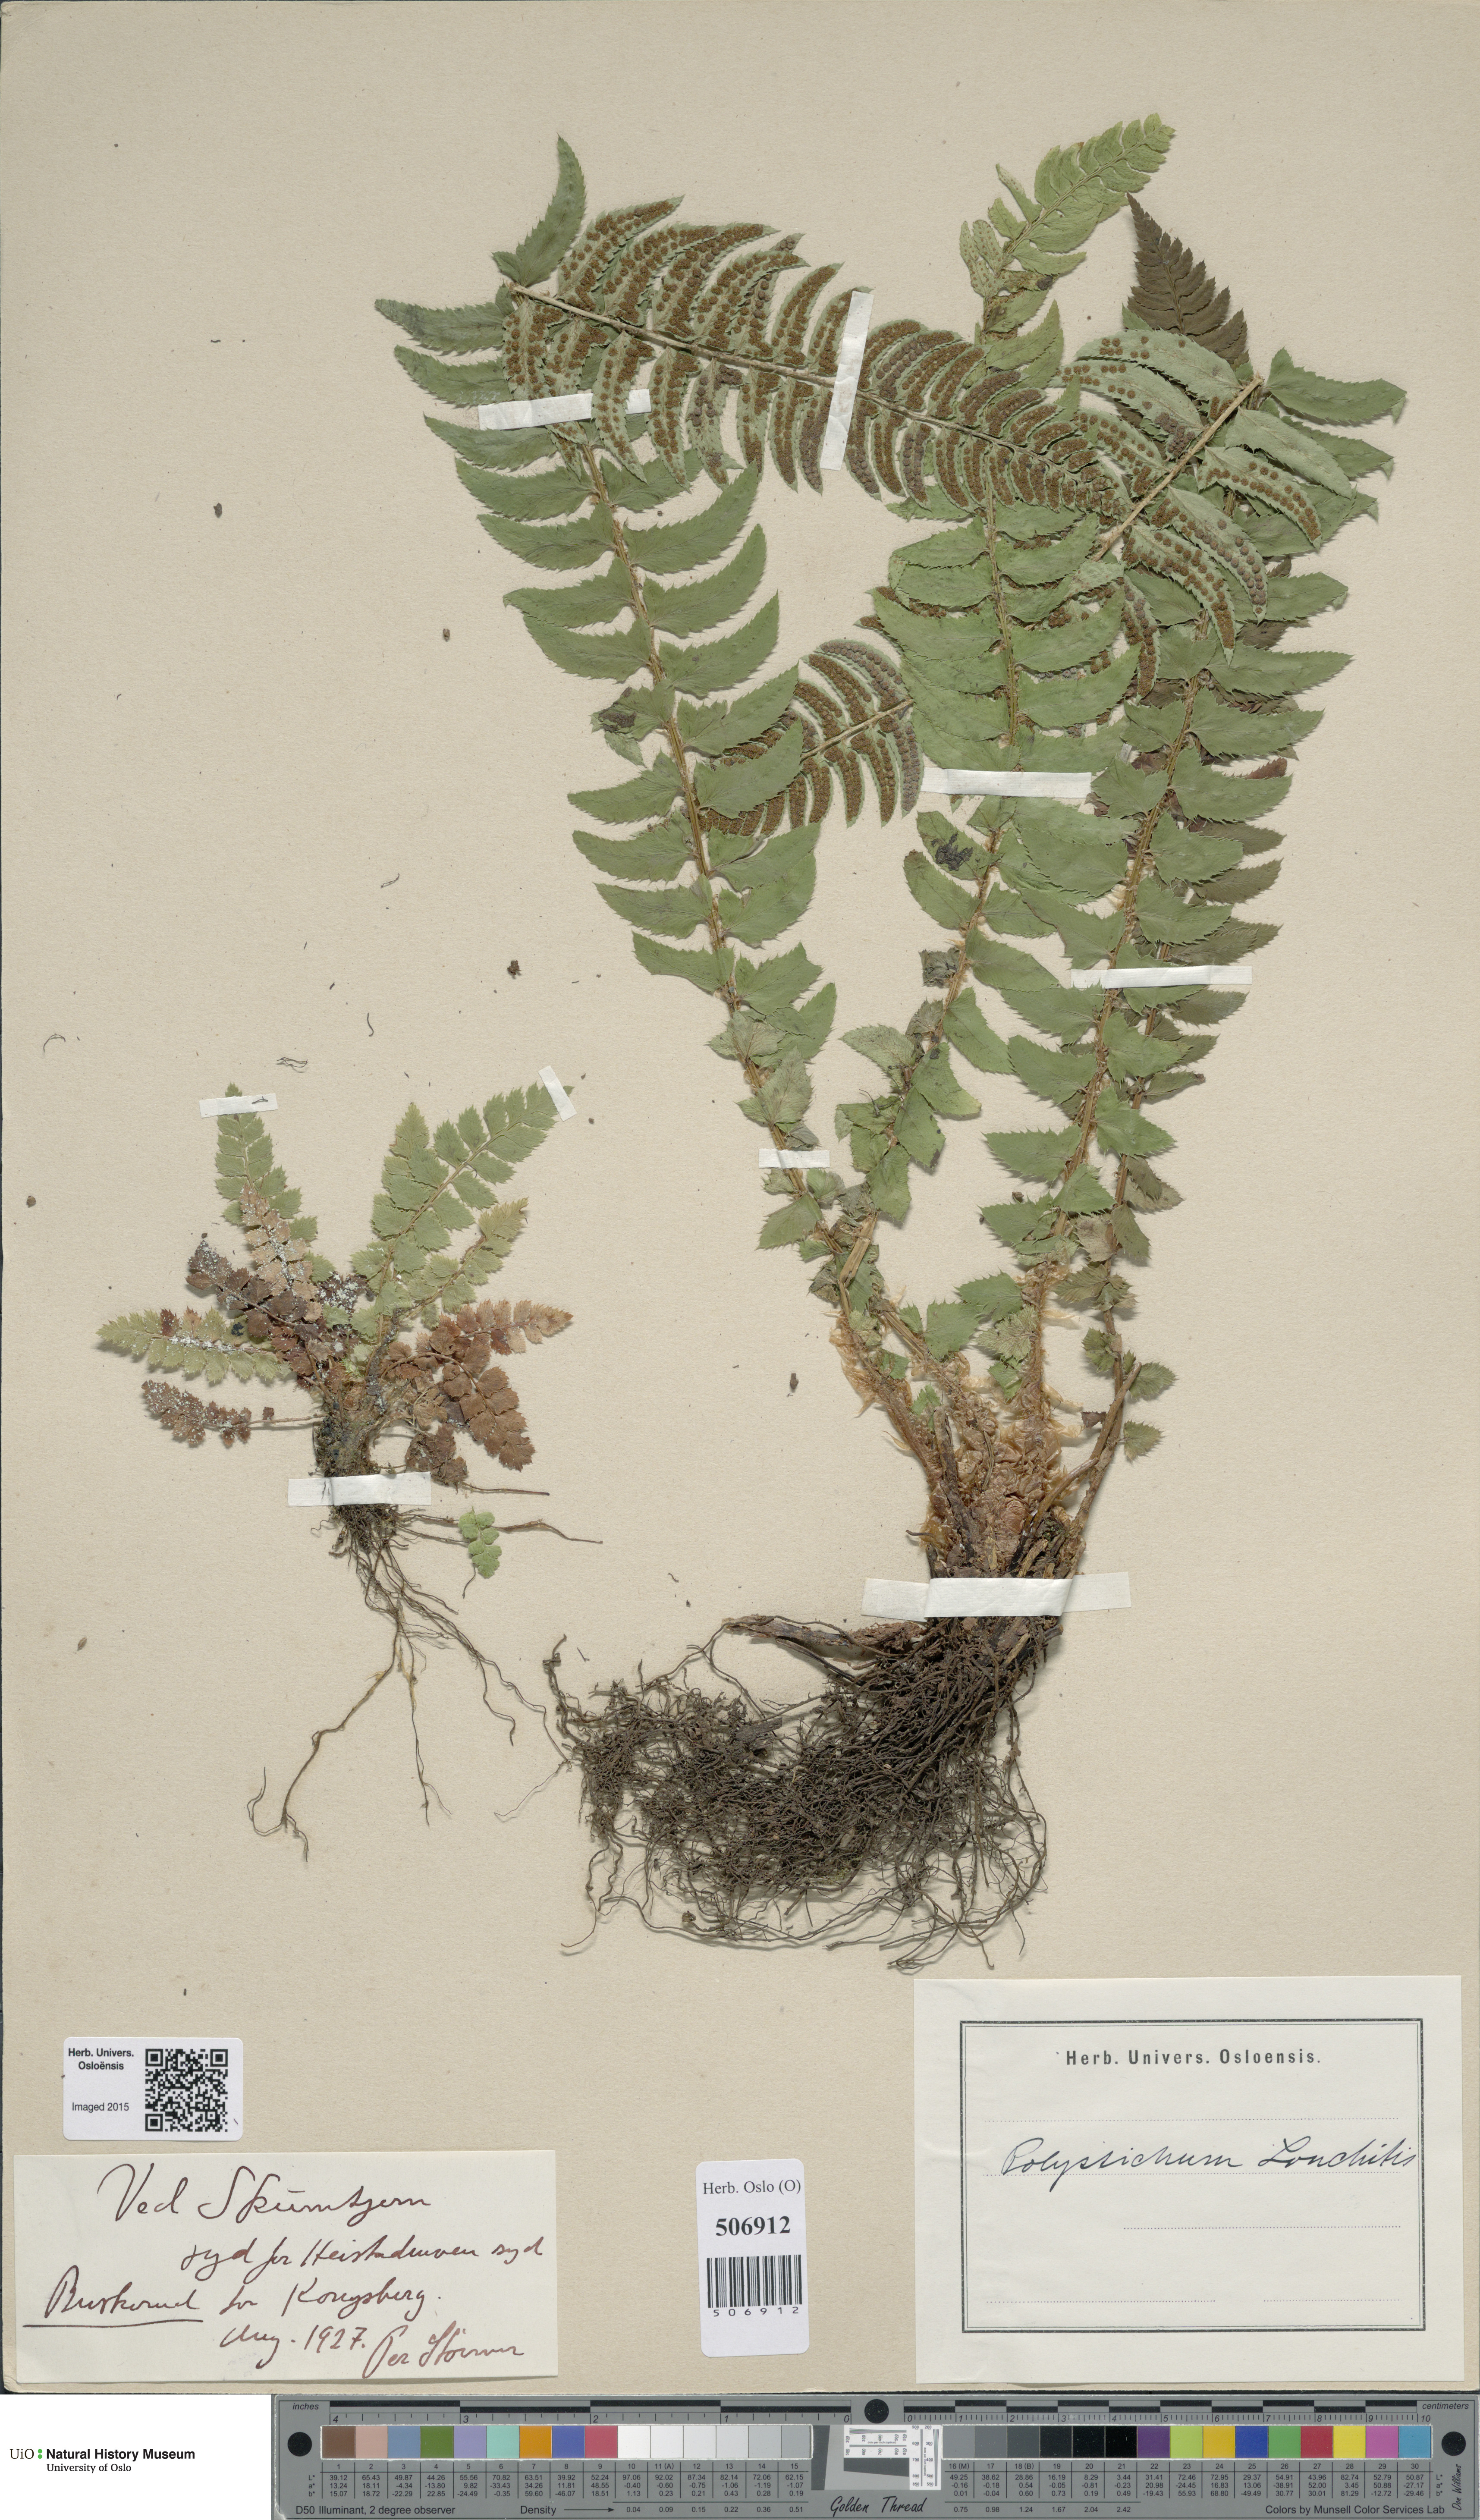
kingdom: Plantae
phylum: Tracheophyta
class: Polypodiopsida
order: Polypodiales
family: Dryopteridaceae
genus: Polystichum
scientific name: Polystichum lonchitis
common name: Holly fern
